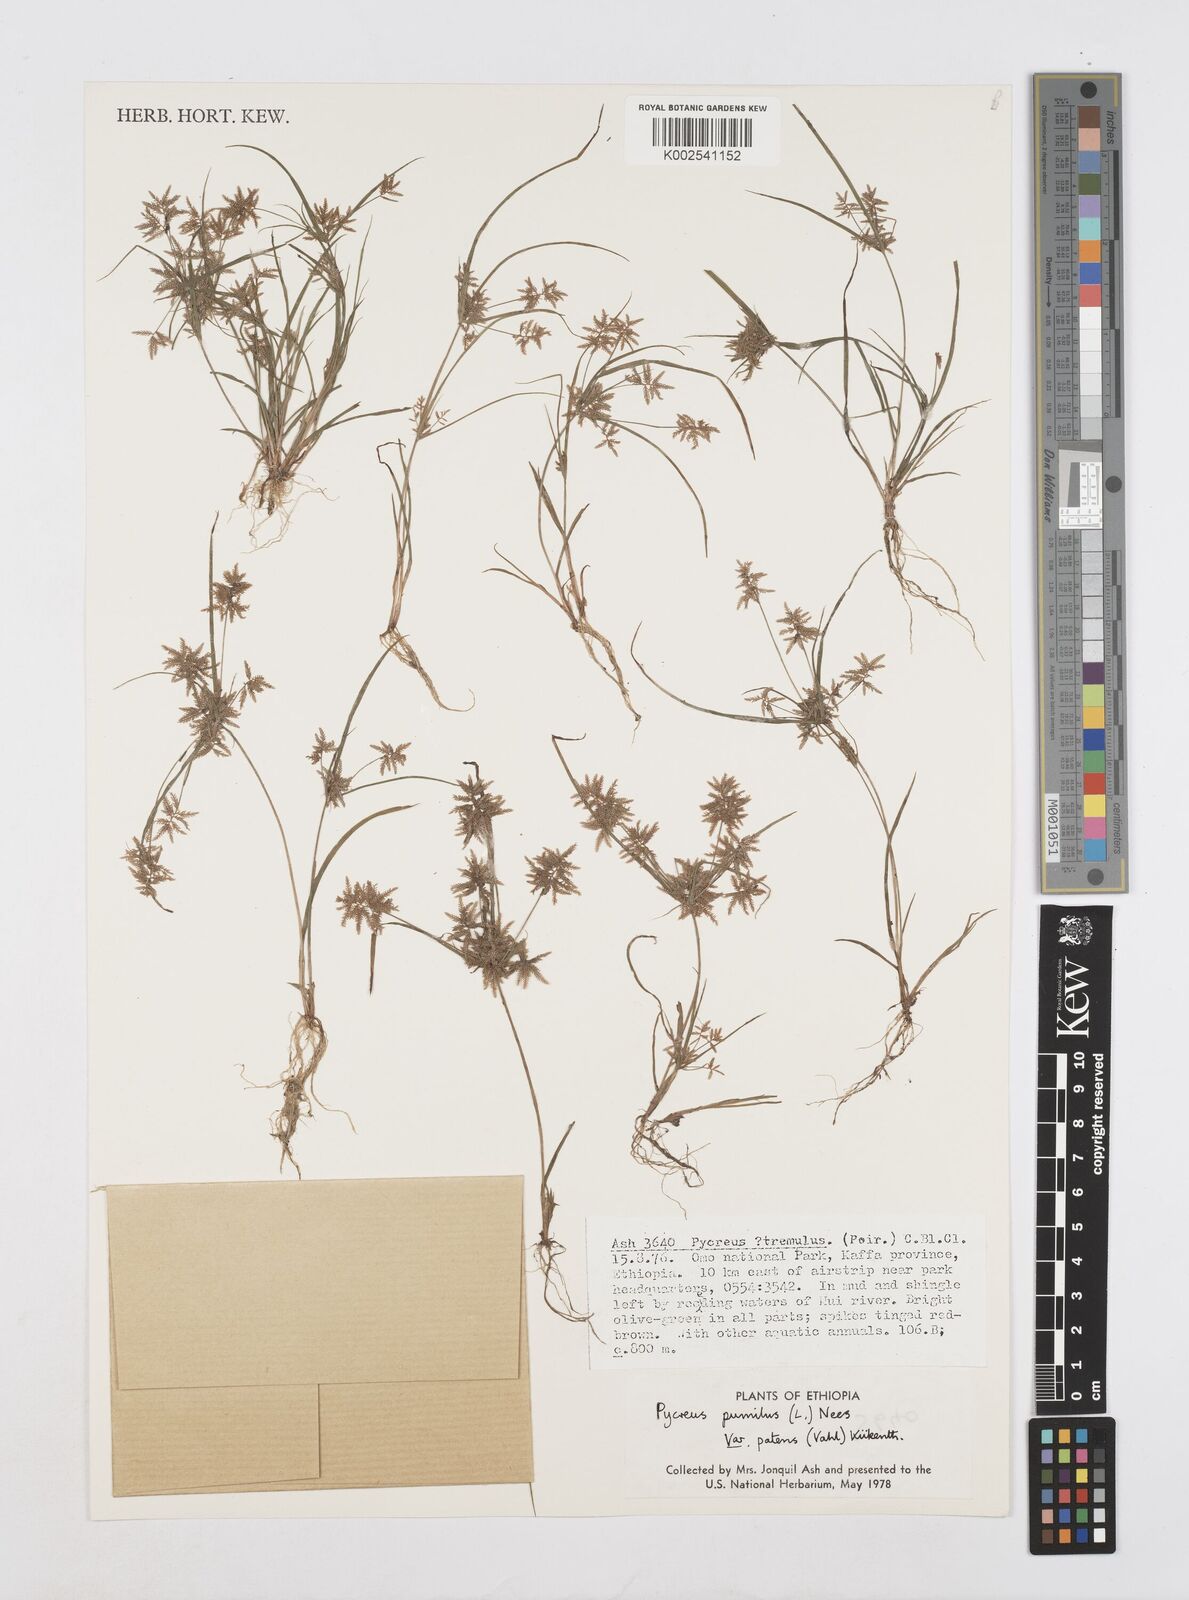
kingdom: Plantae
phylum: Tracheophyta
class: Liliopsida
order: Poales
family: Cyperaceae
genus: Cyperus
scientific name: Cyperus pumilus
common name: Low flatsedge
